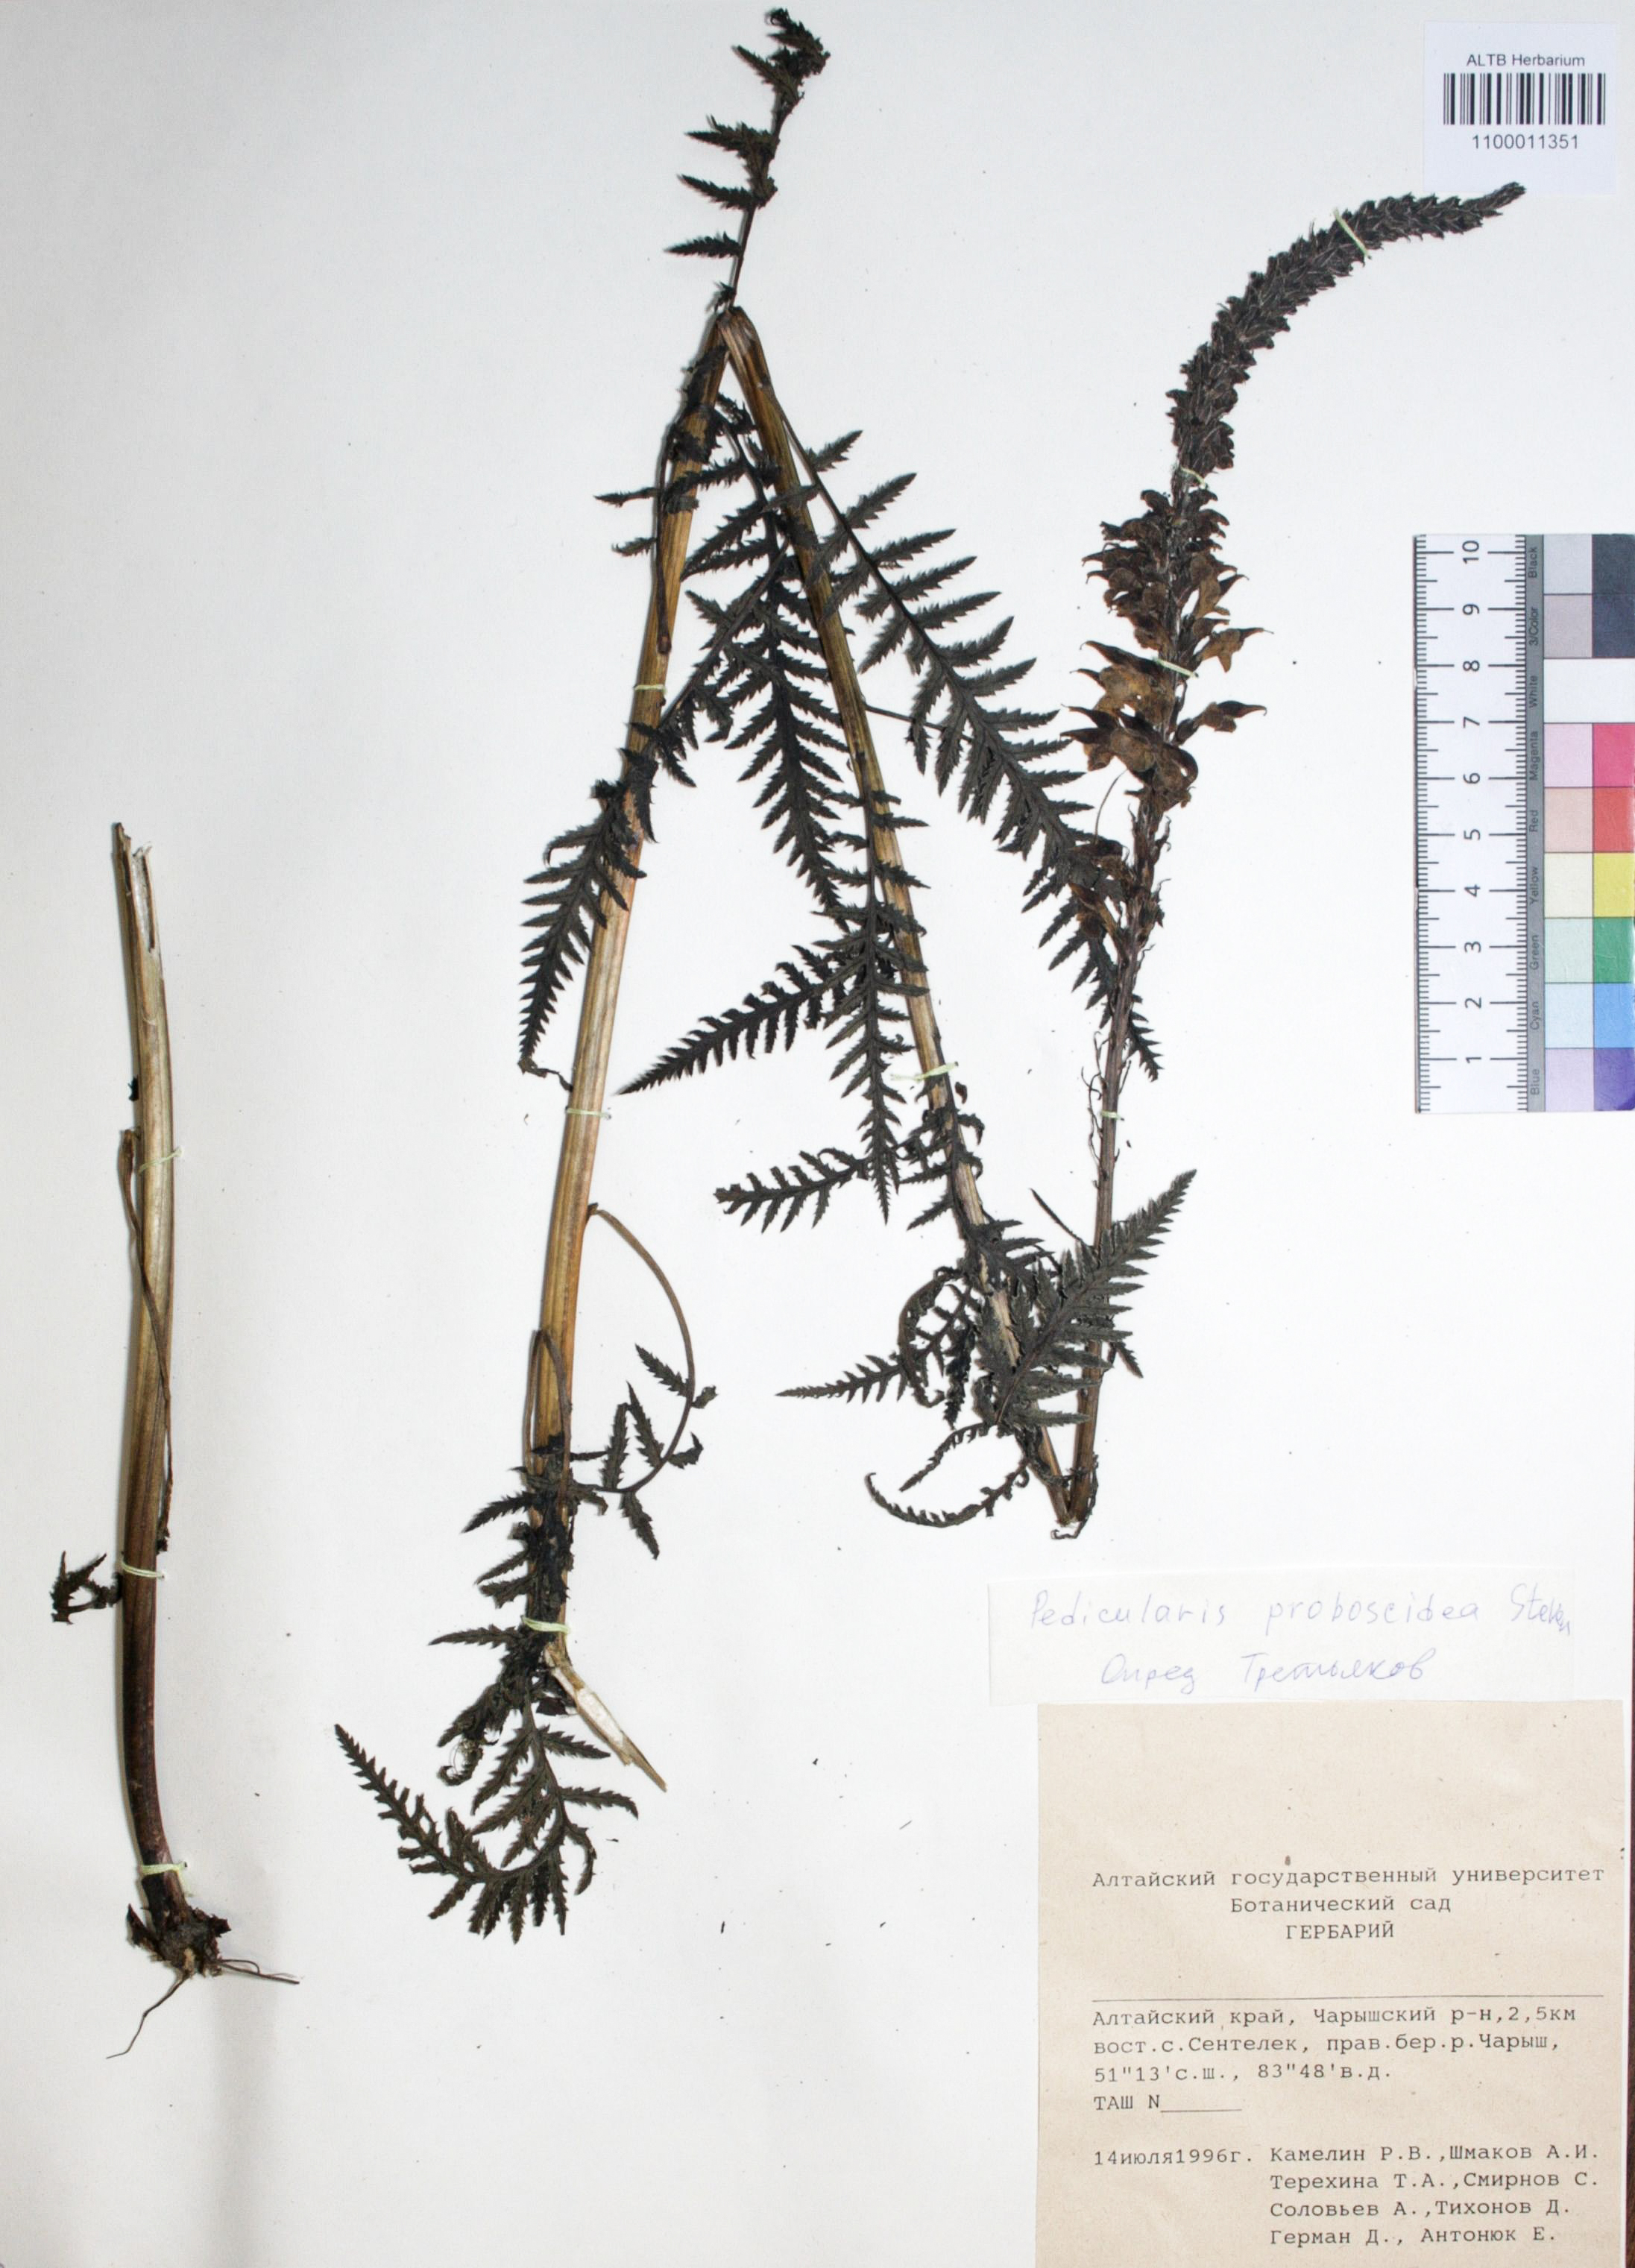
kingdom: Plantae
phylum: Tracheophyta
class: Magnoliopsida
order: Lamiales
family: Orobanchaceae
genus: Pedicularis
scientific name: Pedicularis proboscidea
